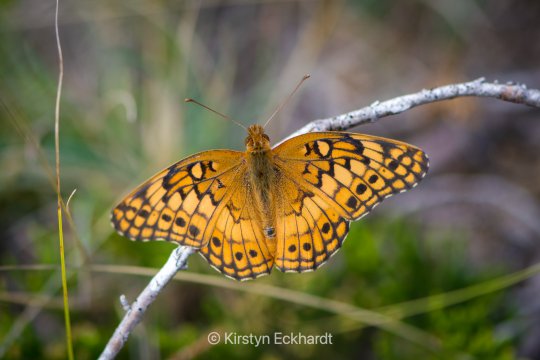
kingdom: Animalia
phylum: Arthropoda
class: Insecta
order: Lepidoptera
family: Nymphalidae
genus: Euptoieta
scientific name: Euptoieta claudia
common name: Variegated Fritillary
